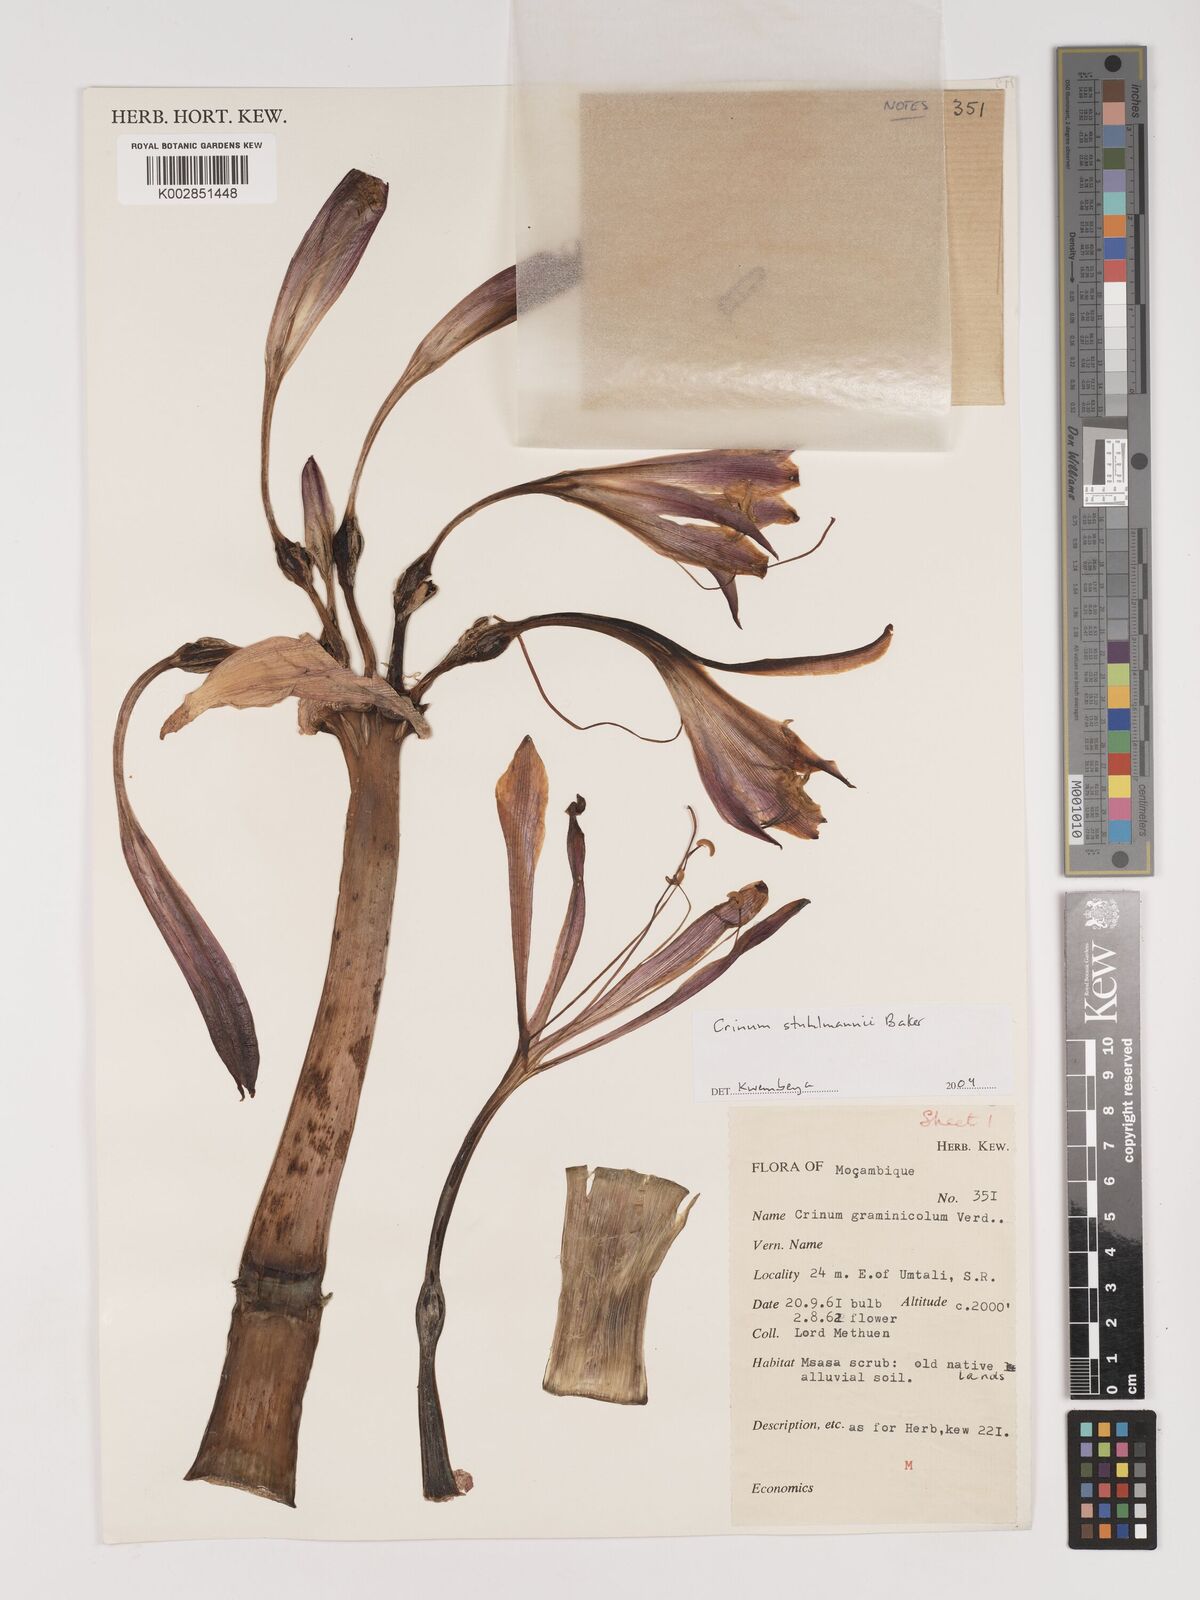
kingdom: Plantae
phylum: Tracheophyta
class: Liliopsida
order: Asparagales
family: Amaryllidaceae
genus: Crinum
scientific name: Crinum stuhlmannii
